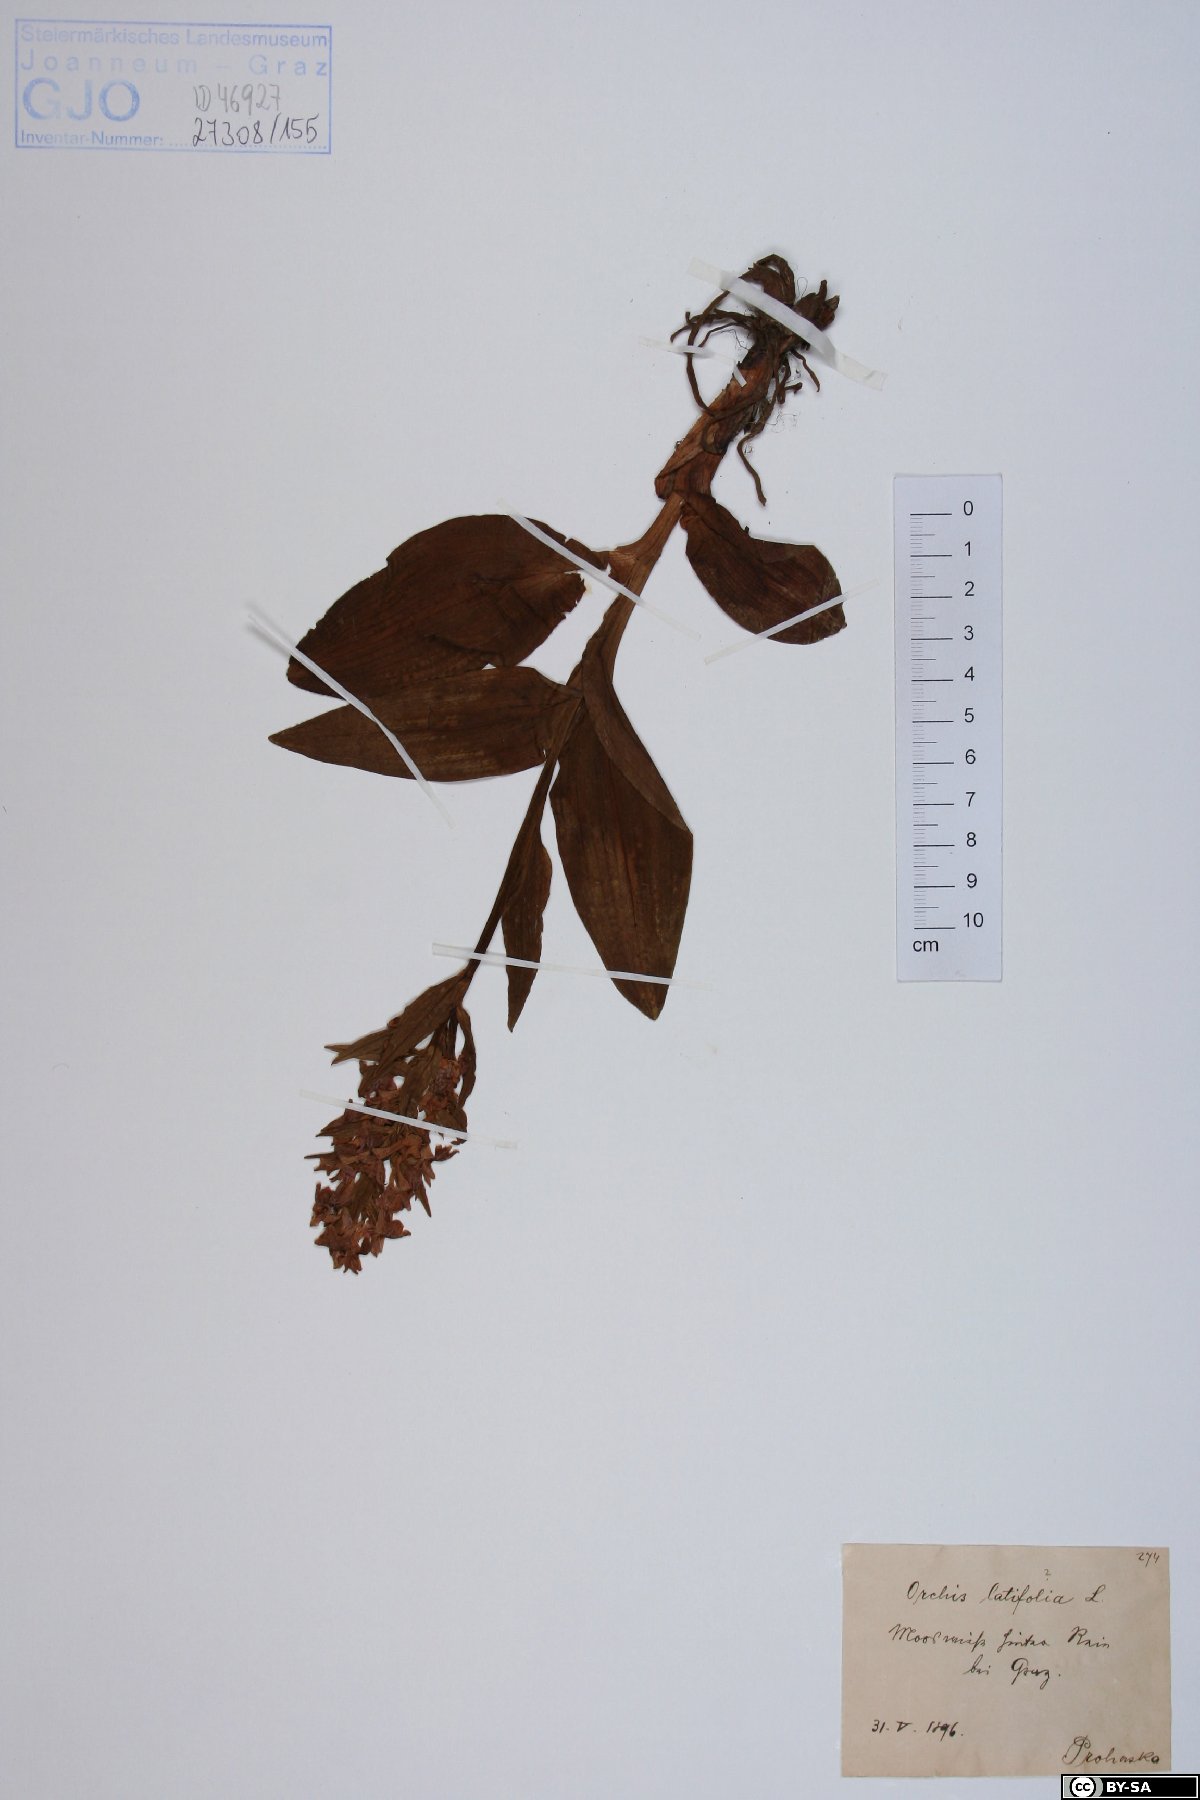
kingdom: Plantae
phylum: Tracheophyta
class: Liliopsida
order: Asparagales
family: Orchidaceae
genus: Dactylorhiza
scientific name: Dactylorhiza incarnata
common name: Early marsh-orchid
